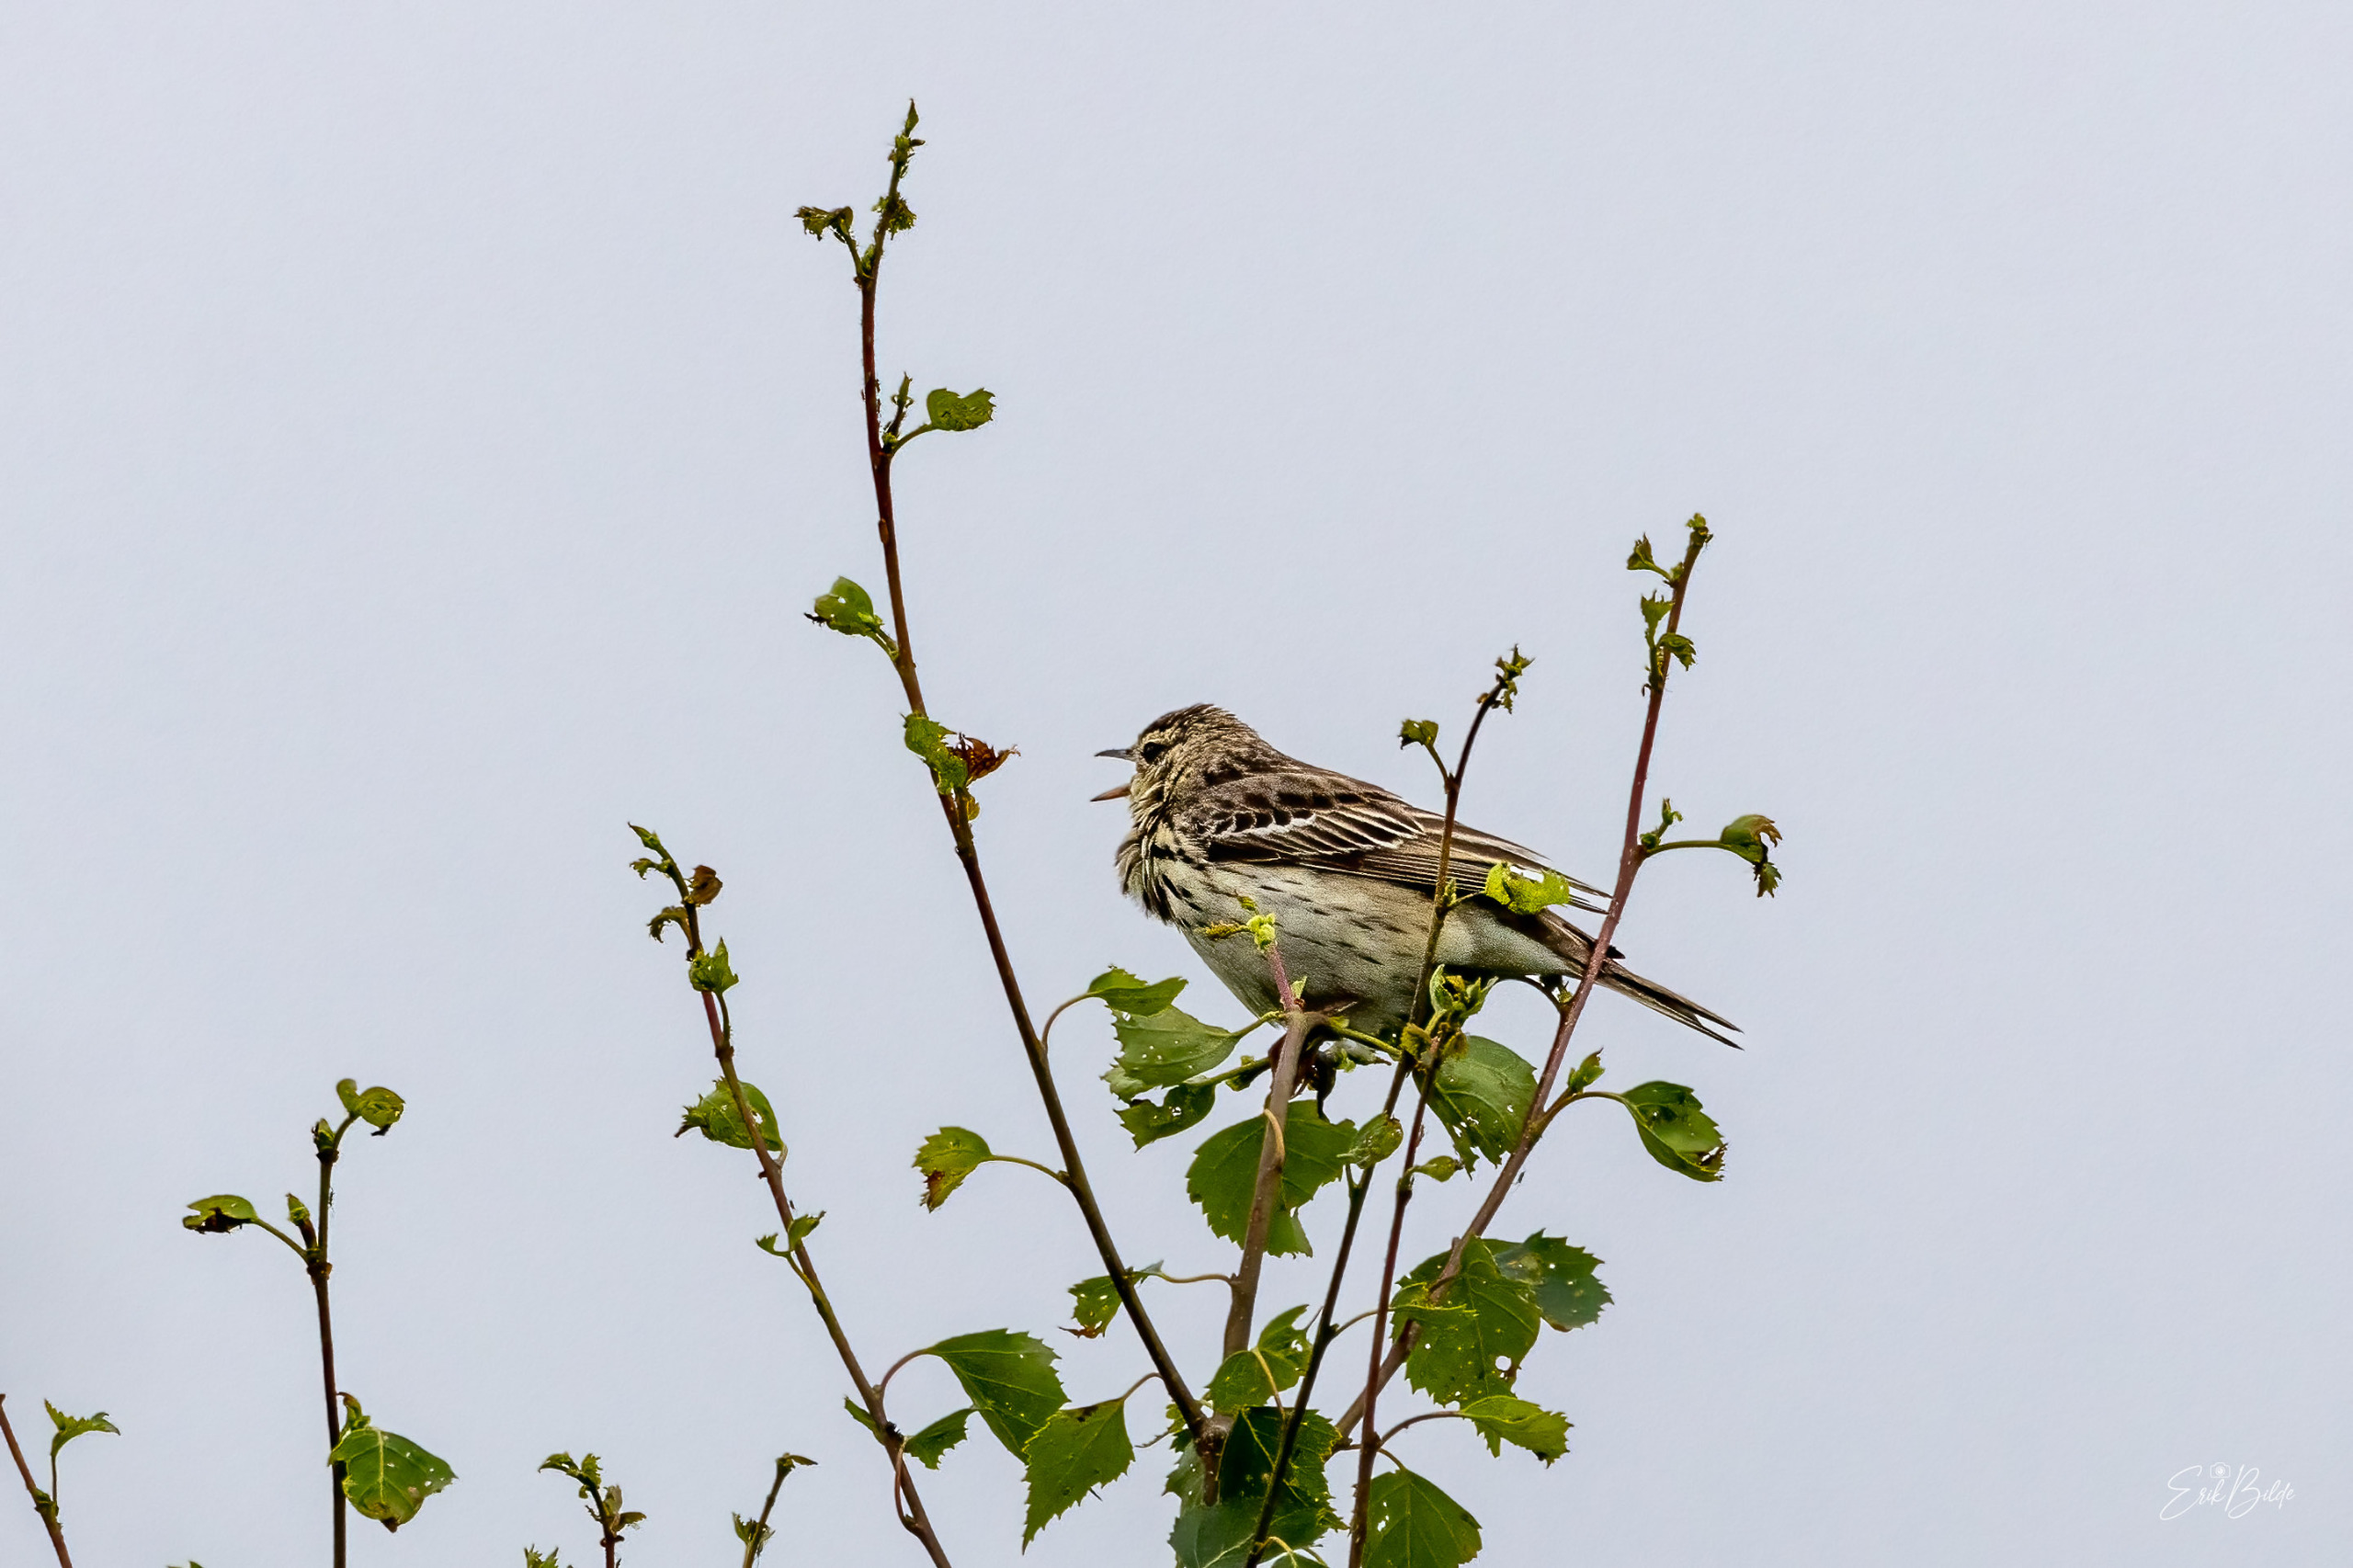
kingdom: Animalia
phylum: Chordata
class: Aves
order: Passeriformes
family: Motacillidae
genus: Anthus
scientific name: Anthus trivialis
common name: Skovpiber
